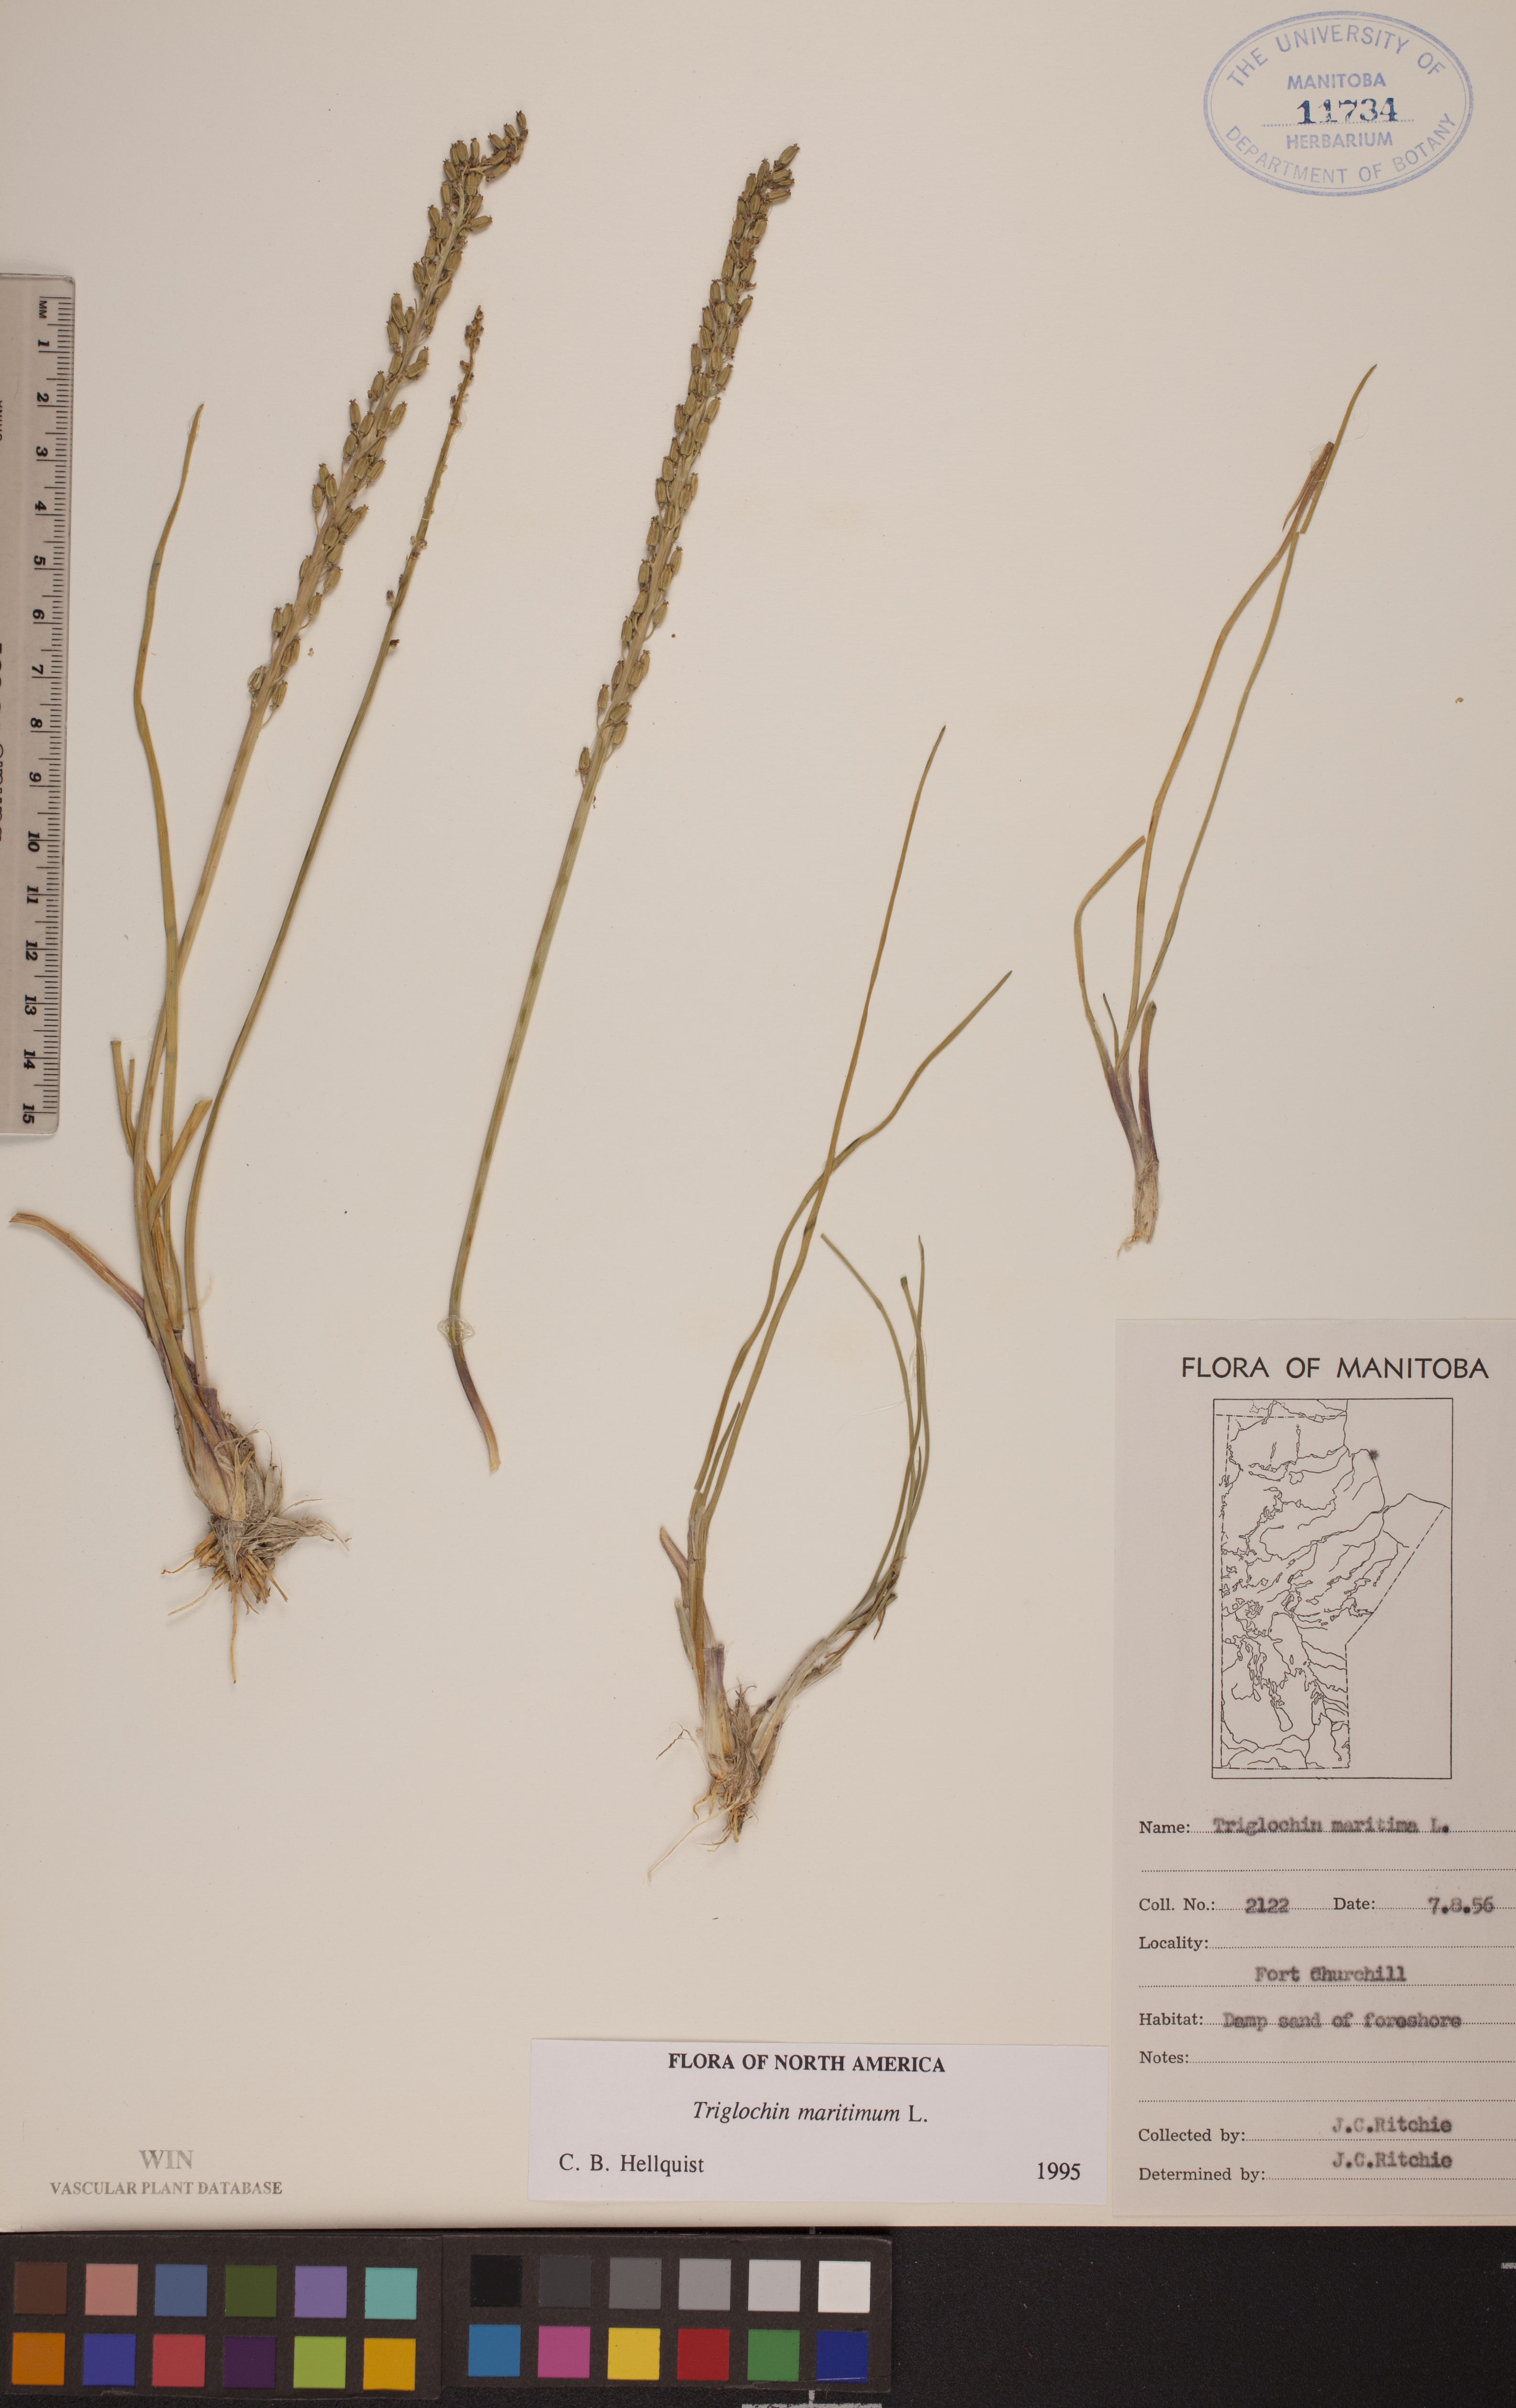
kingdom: Plantae
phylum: Tracheophyta
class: Liliopsida
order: Alismatales
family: Juncaginaceae
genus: Triglochin
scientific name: Triglochin maritima
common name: Sea arrowgrass
